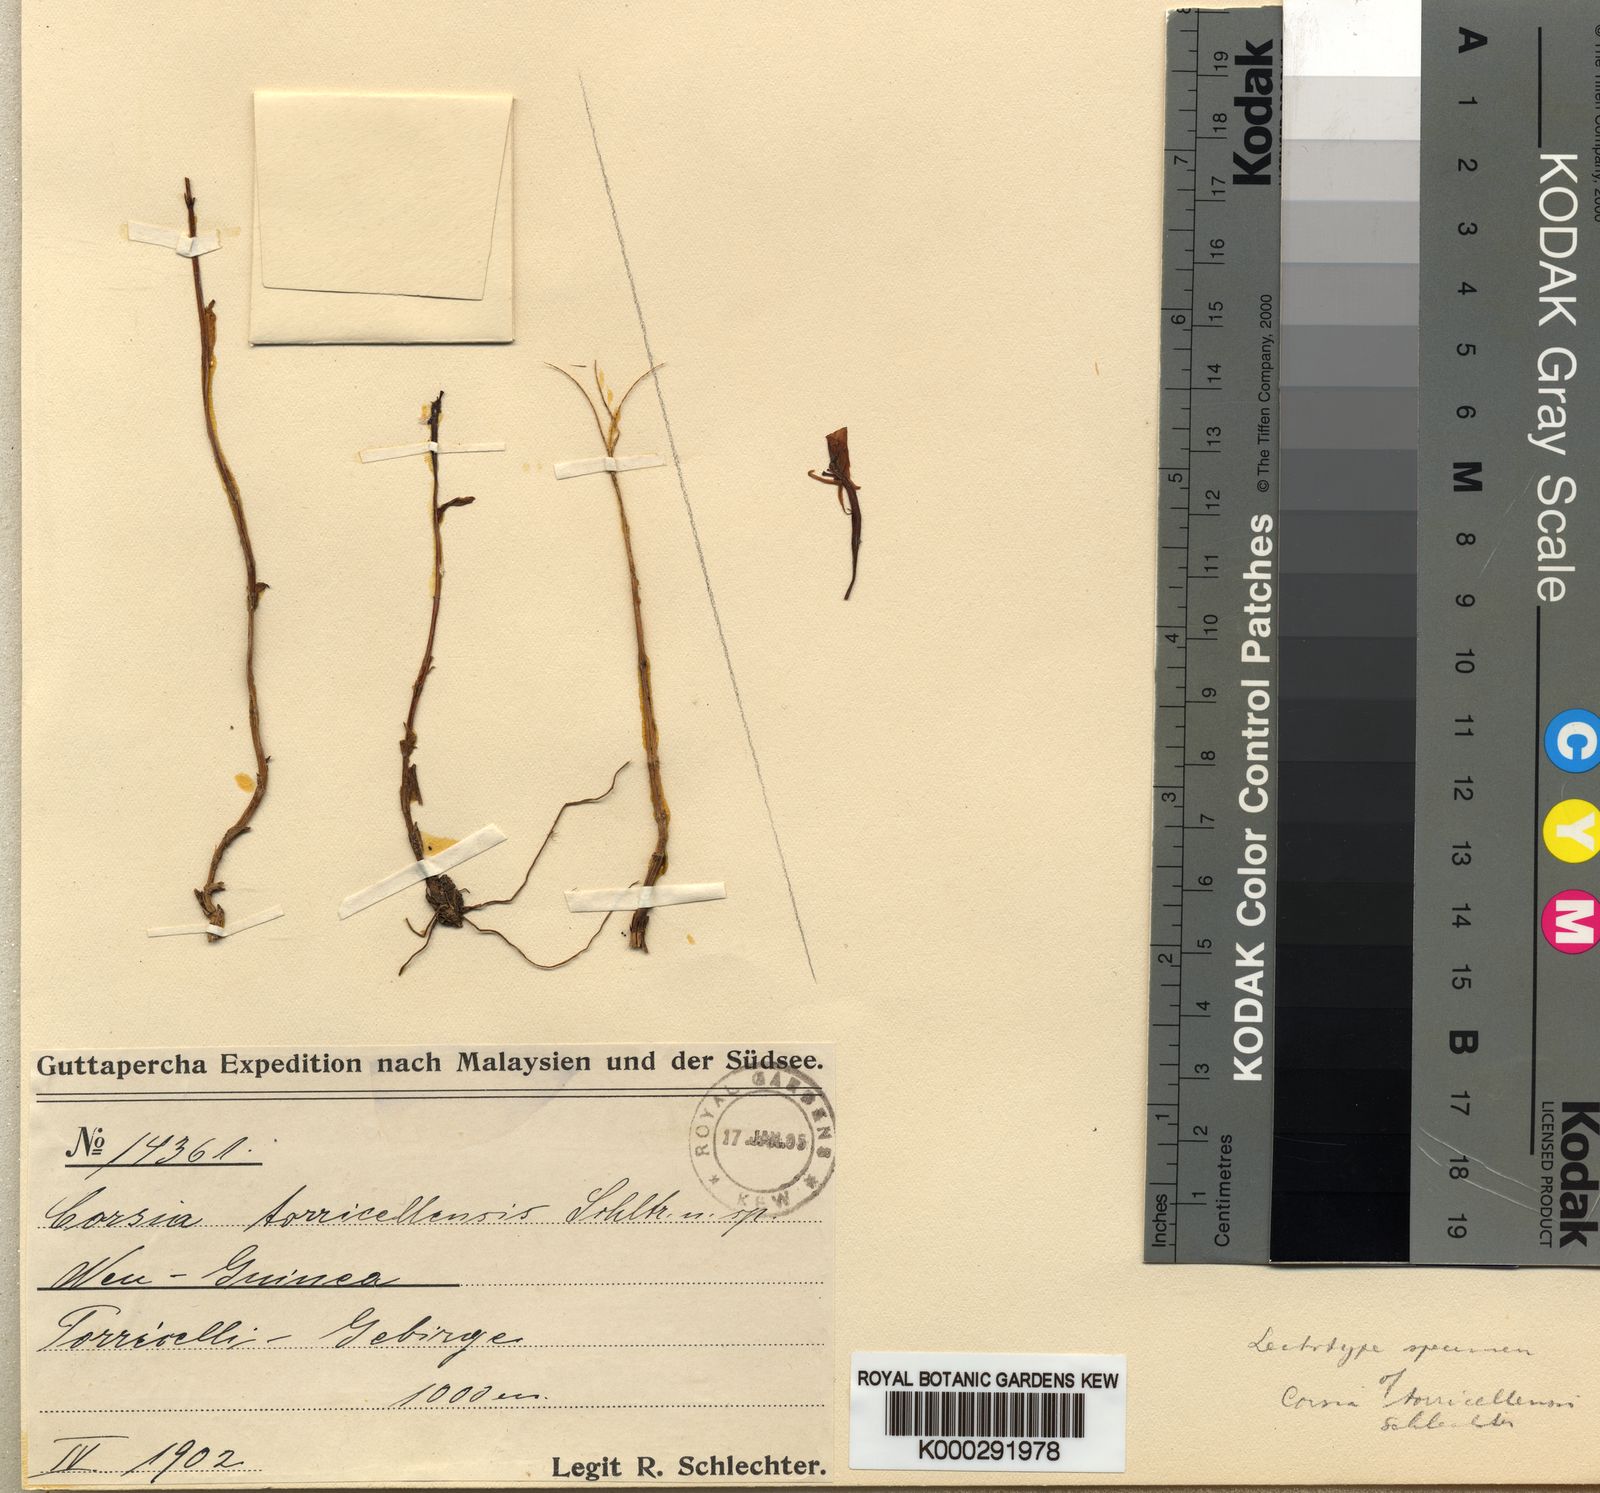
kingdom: Plantae
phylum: Tracheophyta
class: Liliopsida
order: Liliales
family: Corsiaceae
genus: Corsia
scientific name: Corsia torricellensis
